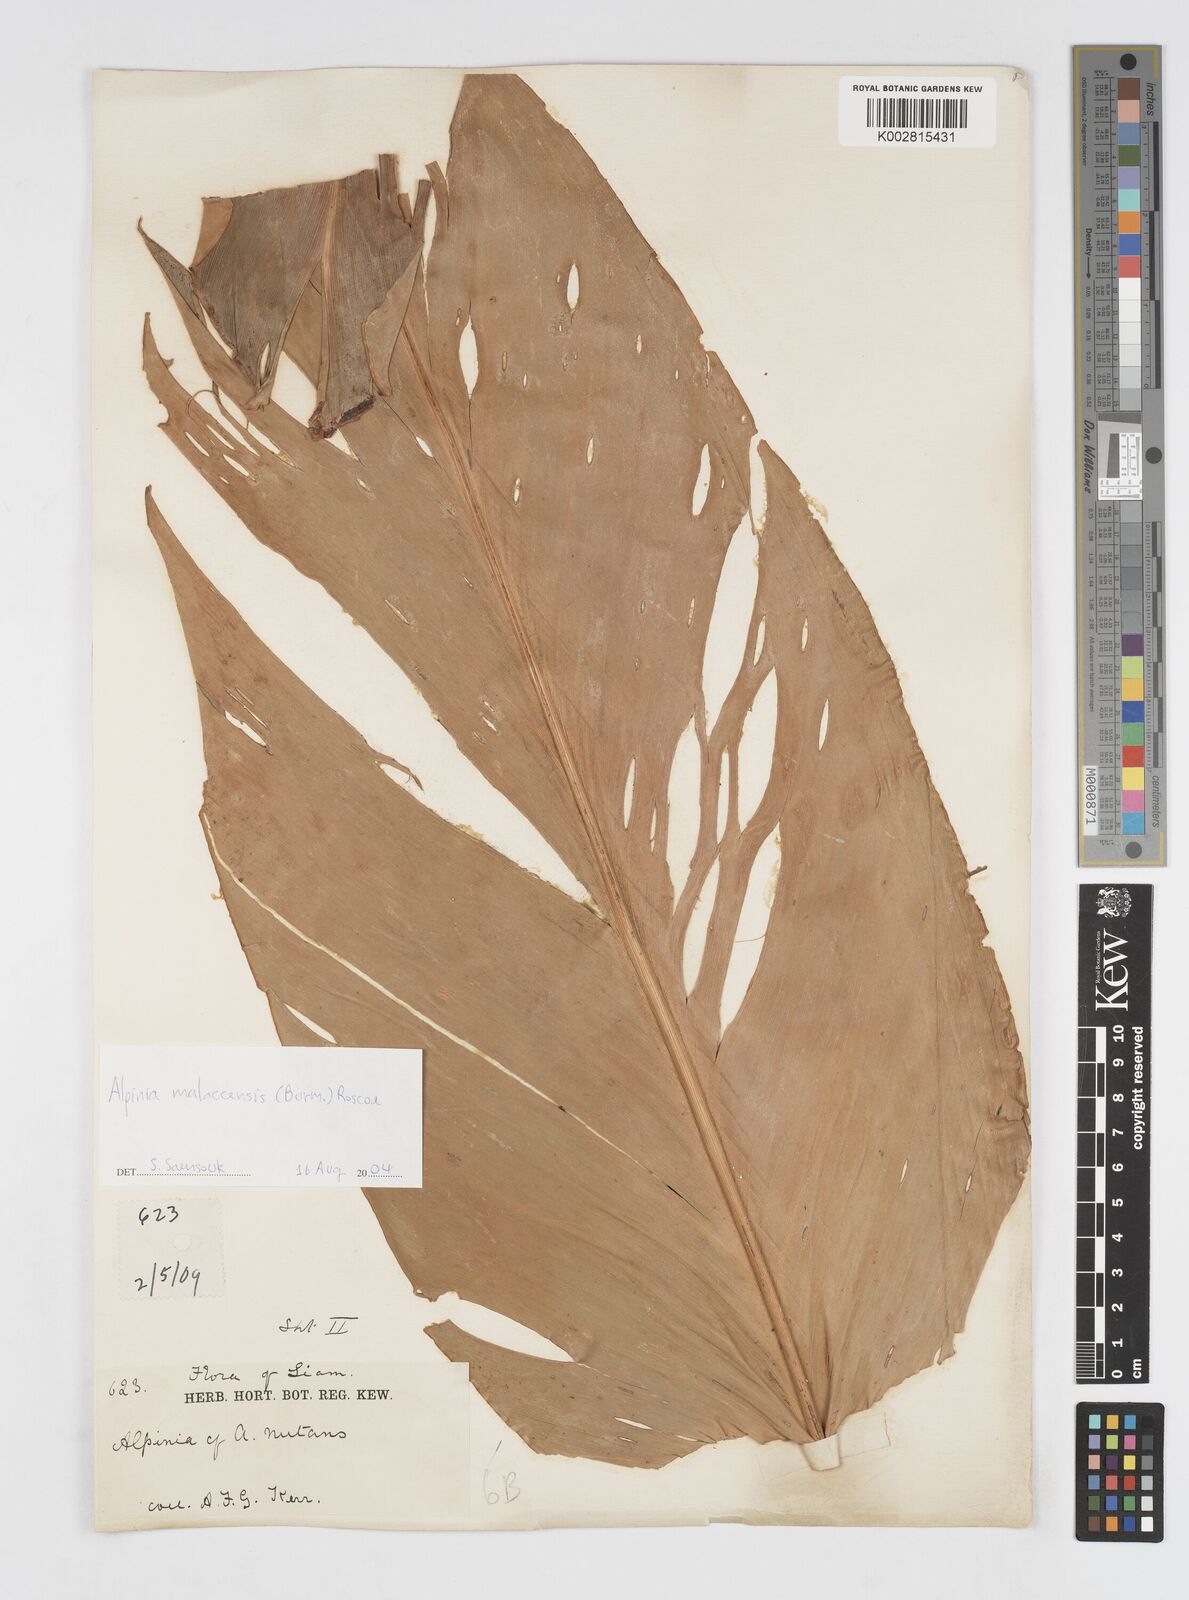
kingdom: Plantae
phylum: Tracheophyta
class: Liliopsida
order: Zingiberales
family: Zingiberaceae
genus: Alpinia
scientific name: Alpinia malaccensis
